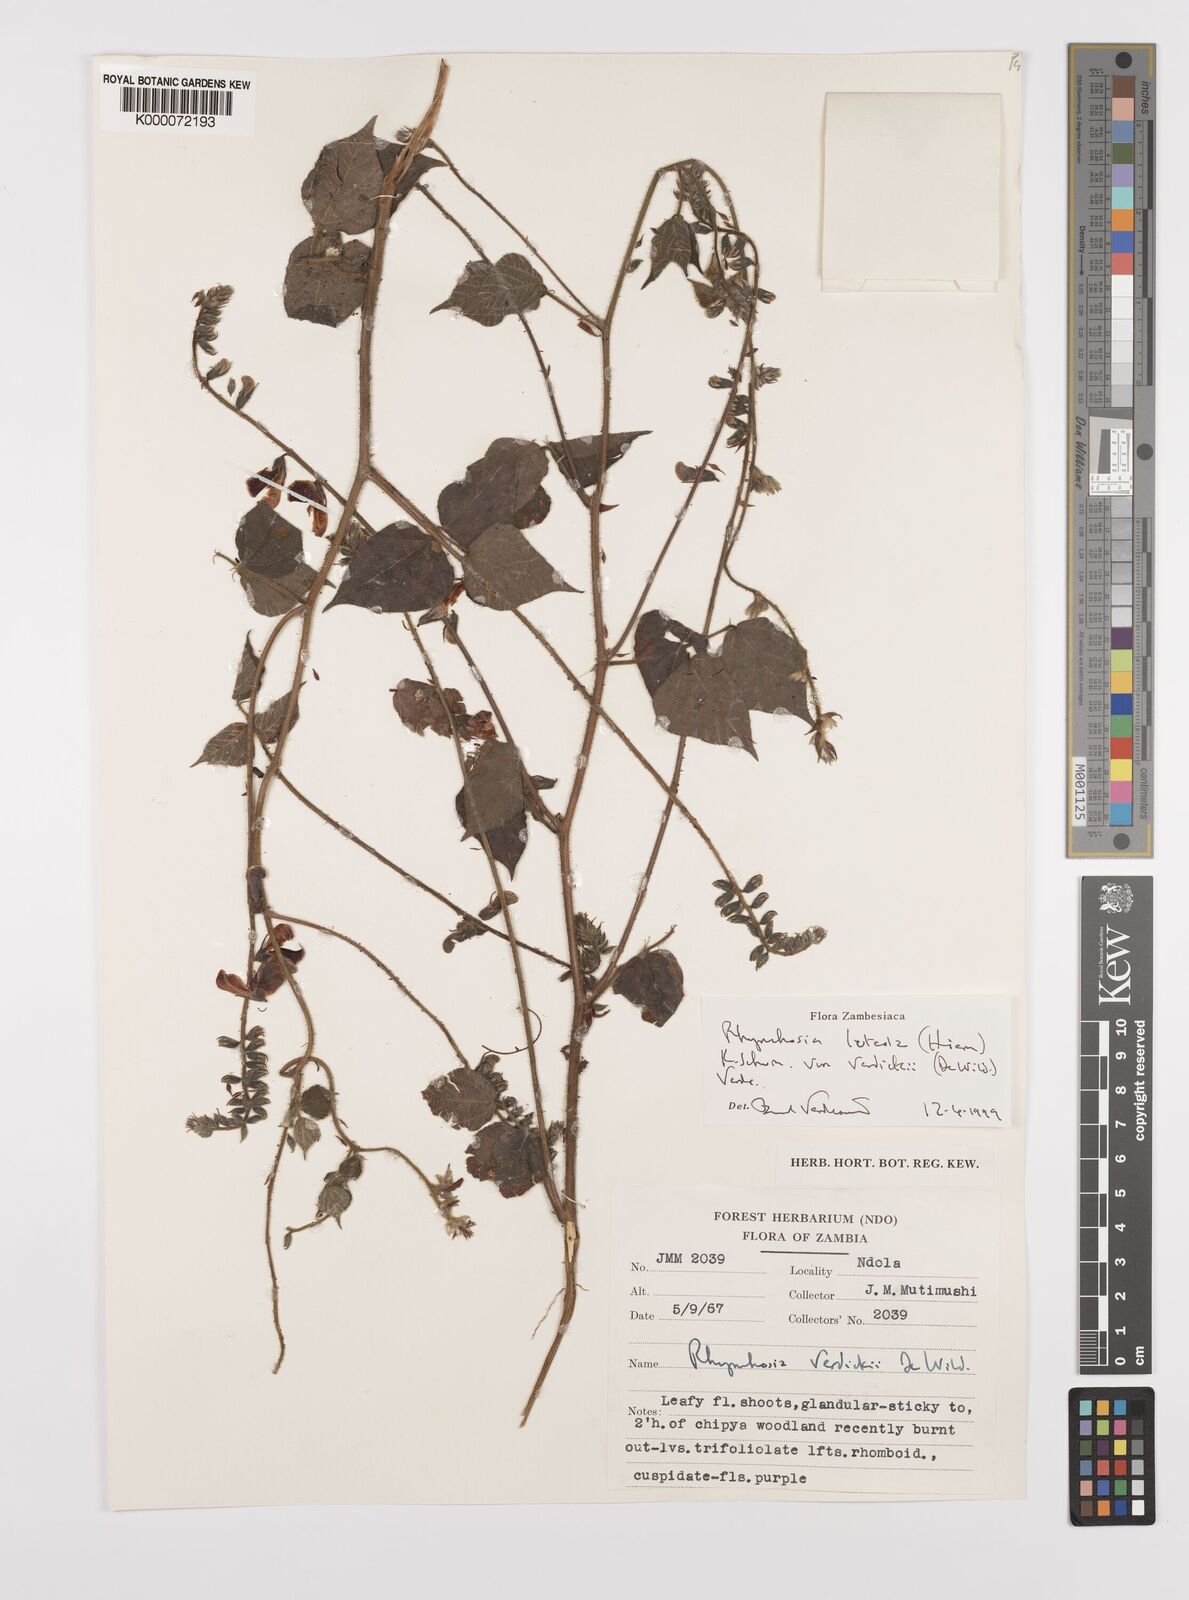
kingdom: Plantae
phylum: Tracheophyta
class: Magnoliopsida
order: Fabales
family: Fabaceae
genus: Rhynchosia
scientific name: Rhynchosia luteola
